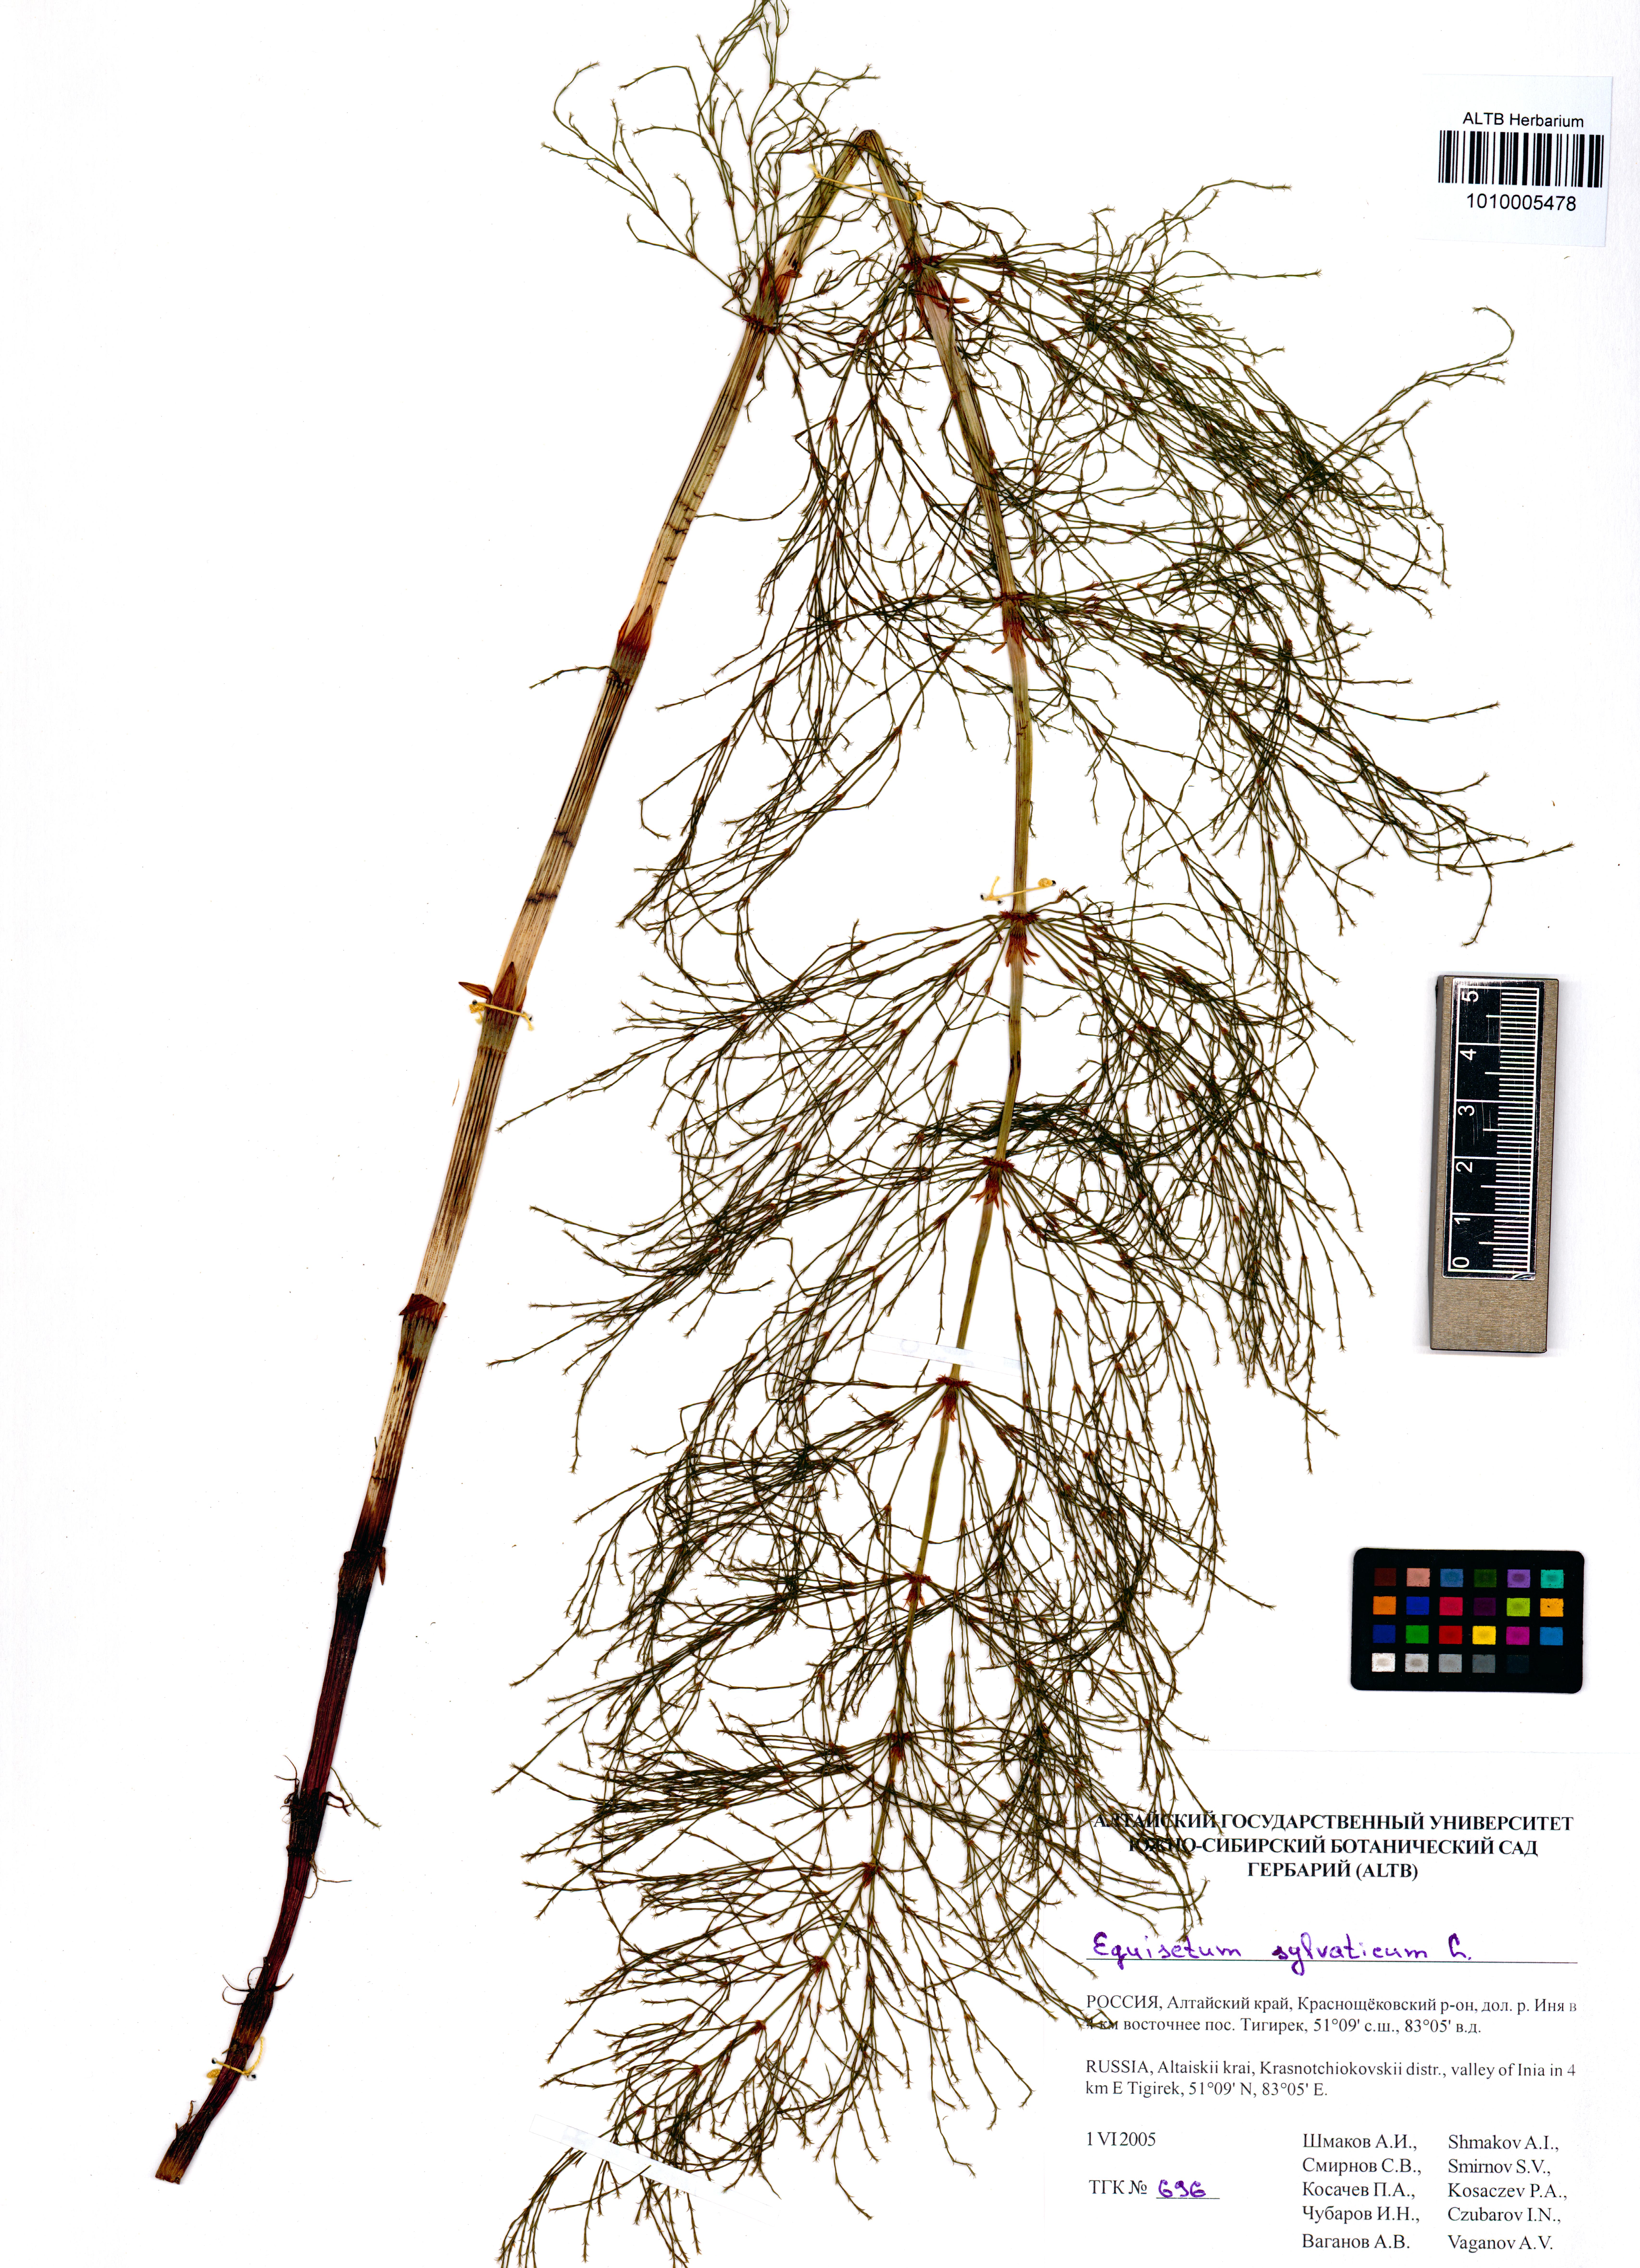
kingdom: Plantae
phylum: Tracheophyta
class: Polypodiopsida
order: Equisetales
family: Equisetaceae
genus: Equisetum
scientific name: Equisetum sylvaticum
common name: Wood horsetail
